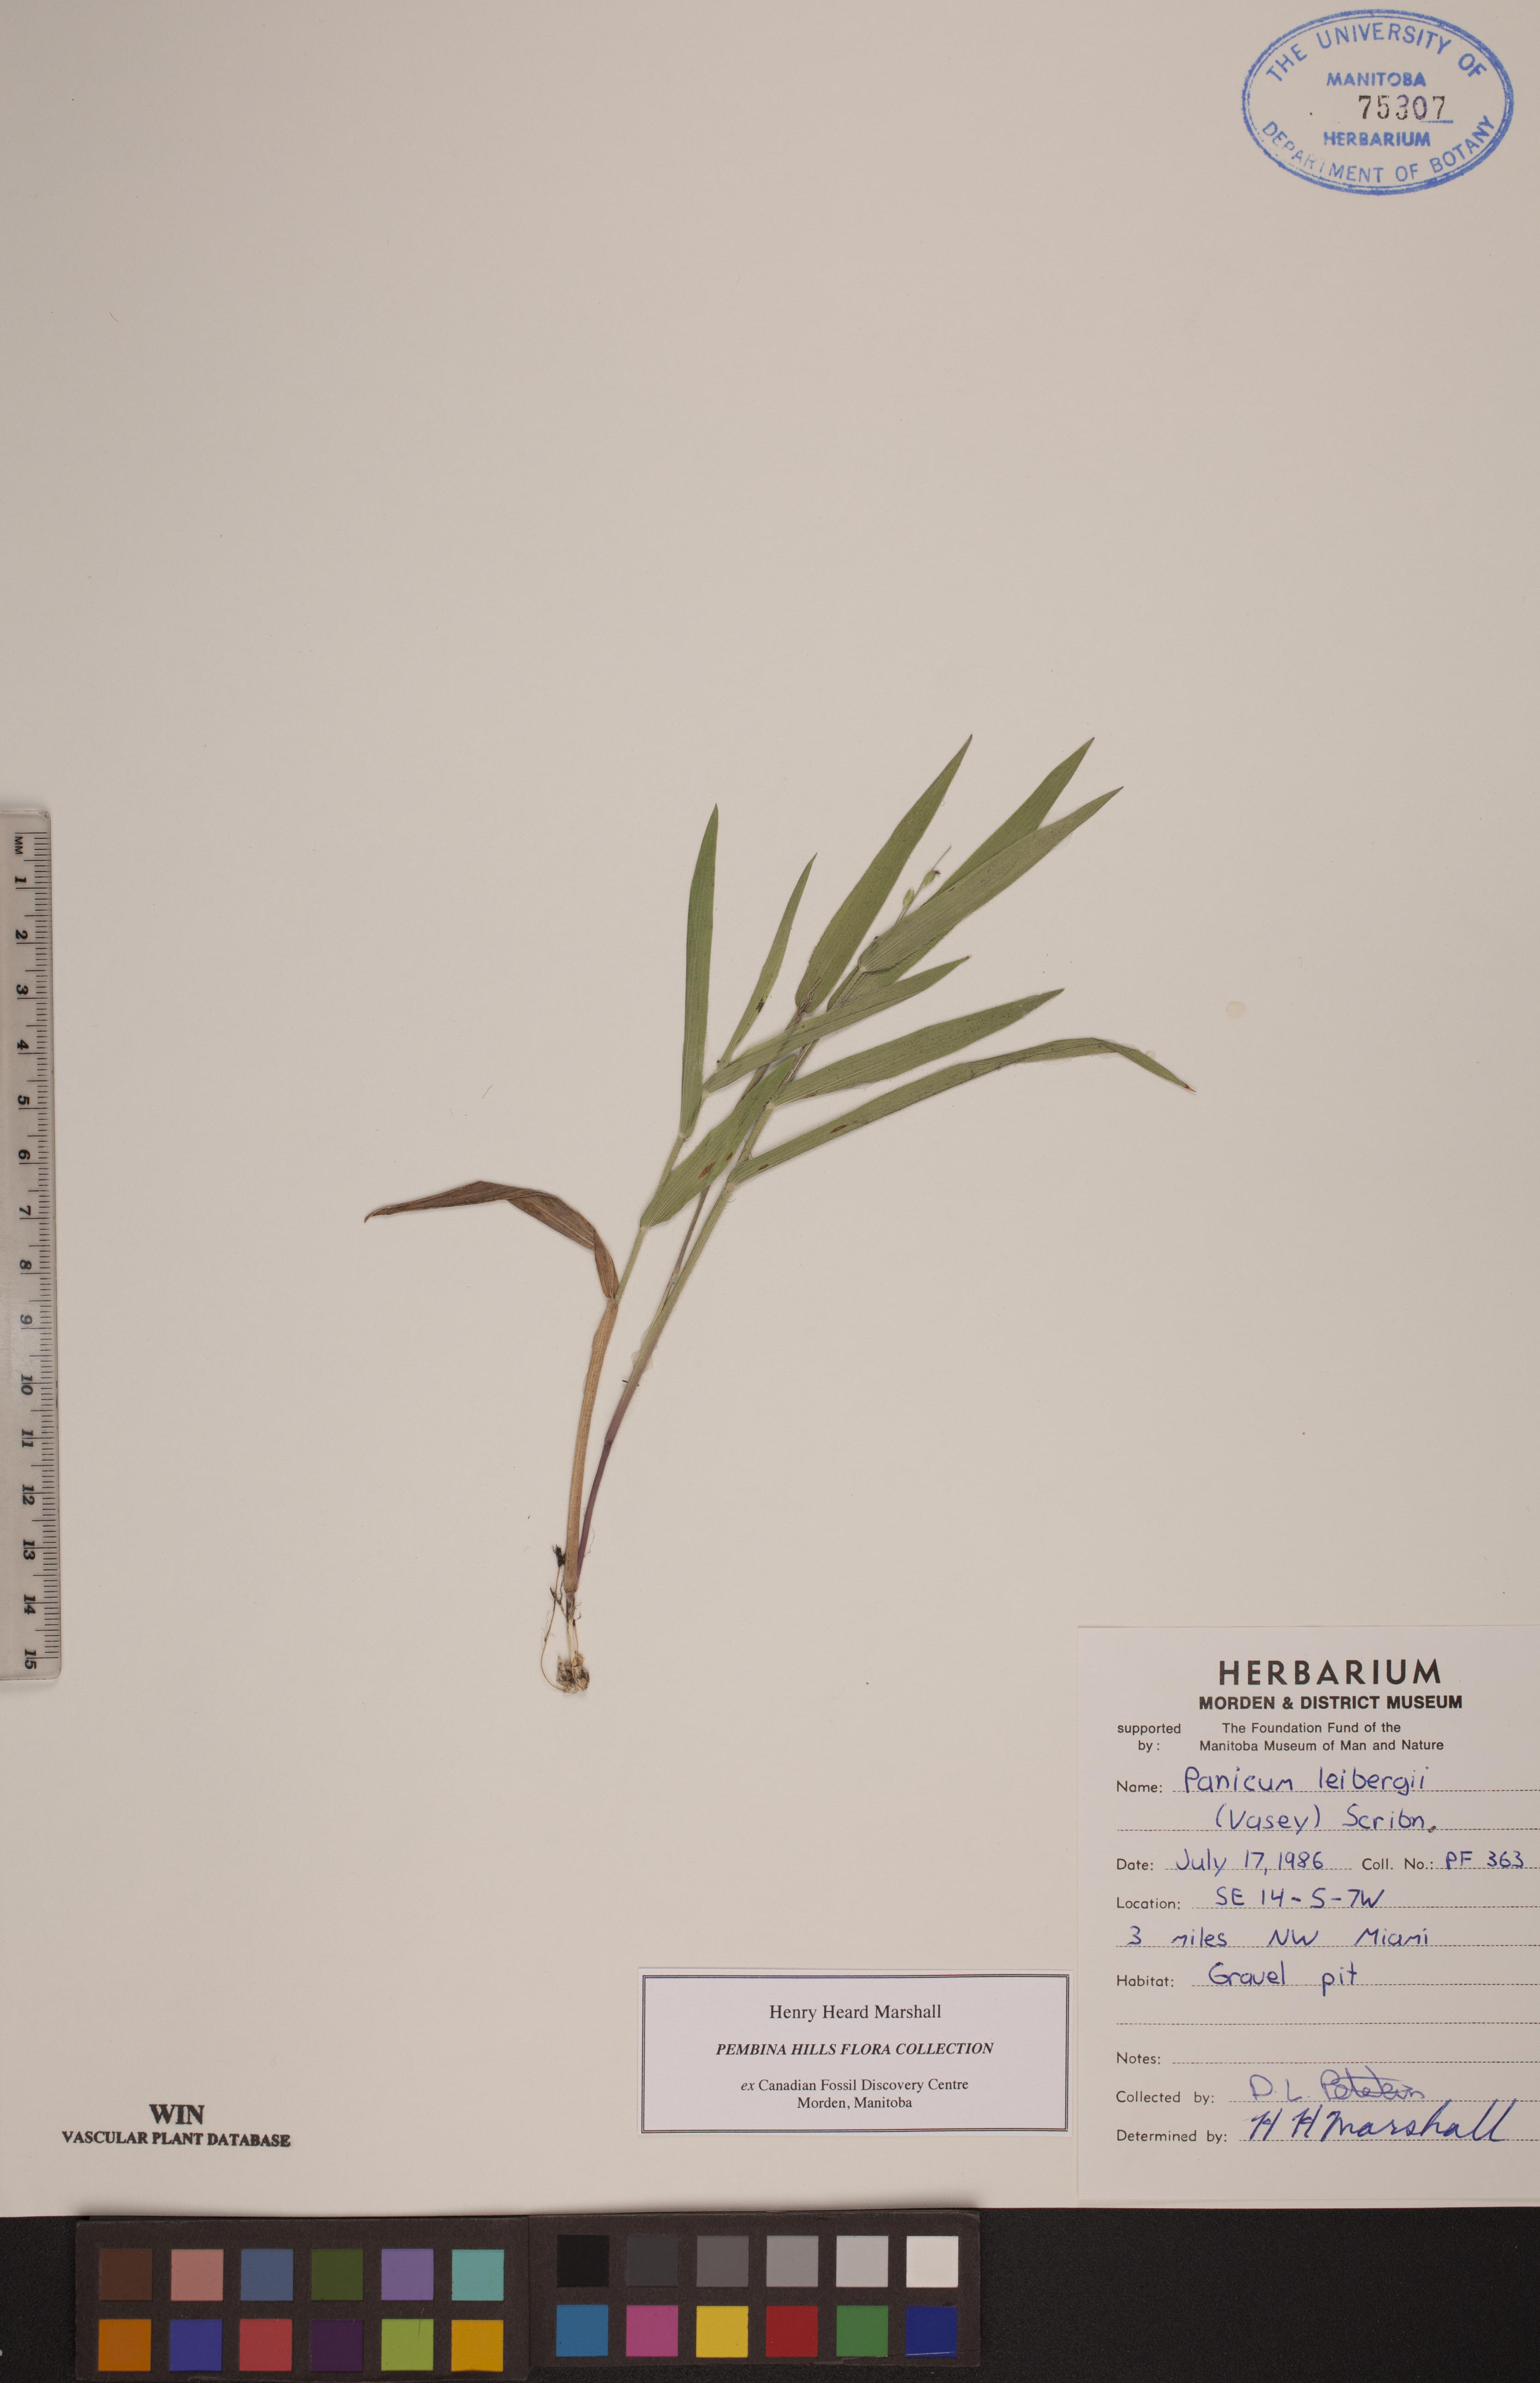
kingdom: Plantae
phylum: Tracheophyta
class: Liliopsida
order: Poales
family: Poaceae
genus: Dichanthelium
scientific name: Dichanthelium leibergii
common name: Leiberg's panic grass
